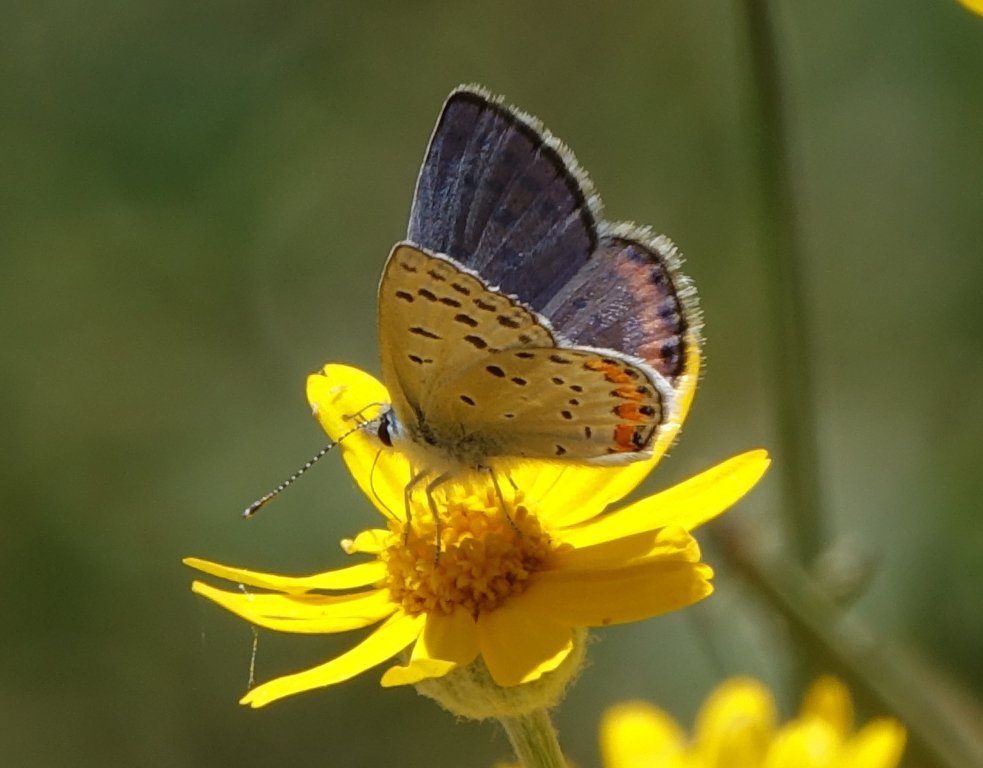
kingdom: Animalia
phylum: Arthropoda
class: Insecta
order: Lepidoptera
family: Lycaenidae
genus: Plebejus
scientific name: Plebejus acmon
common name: Acmon Blue
